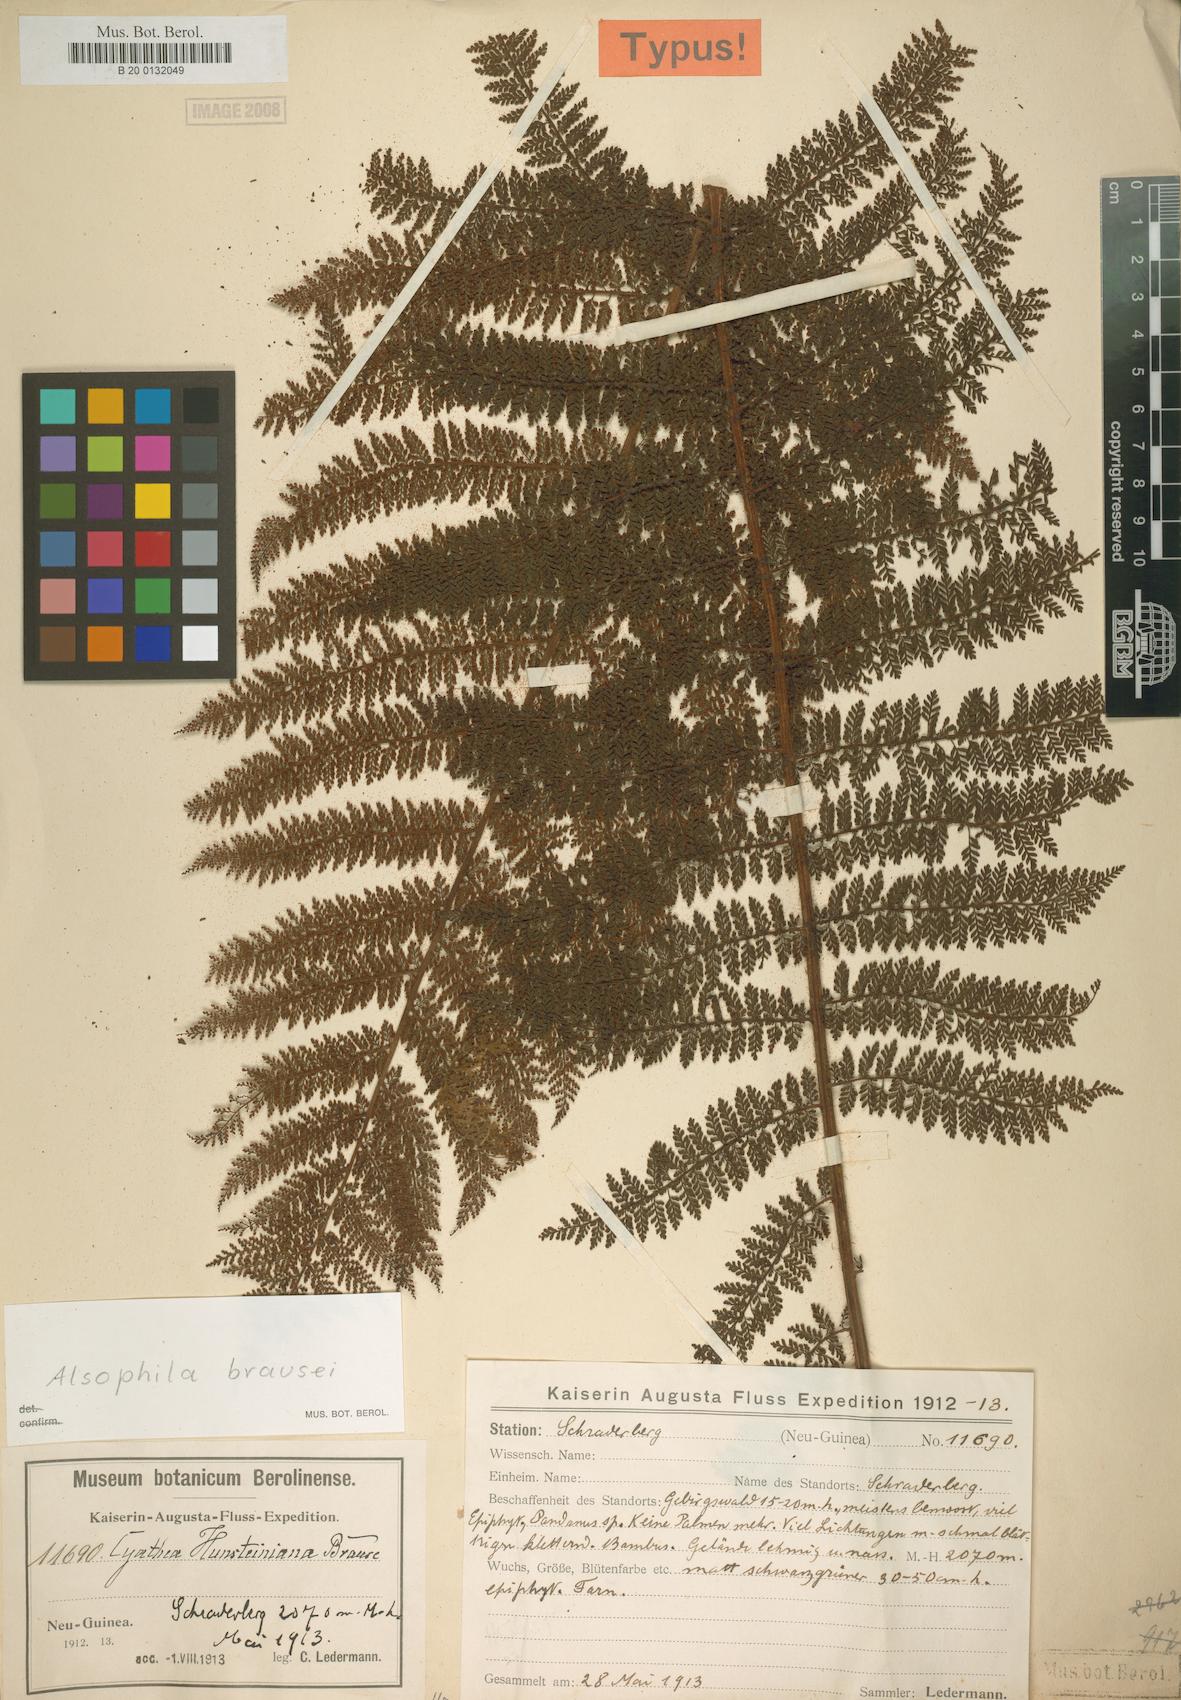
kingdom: Plantae
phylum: Tracheophyta
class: Polypodiopsida
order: Cyatheales
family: Cyatheaceae
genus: Alsophila
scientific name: Alsophila rubiginosa
